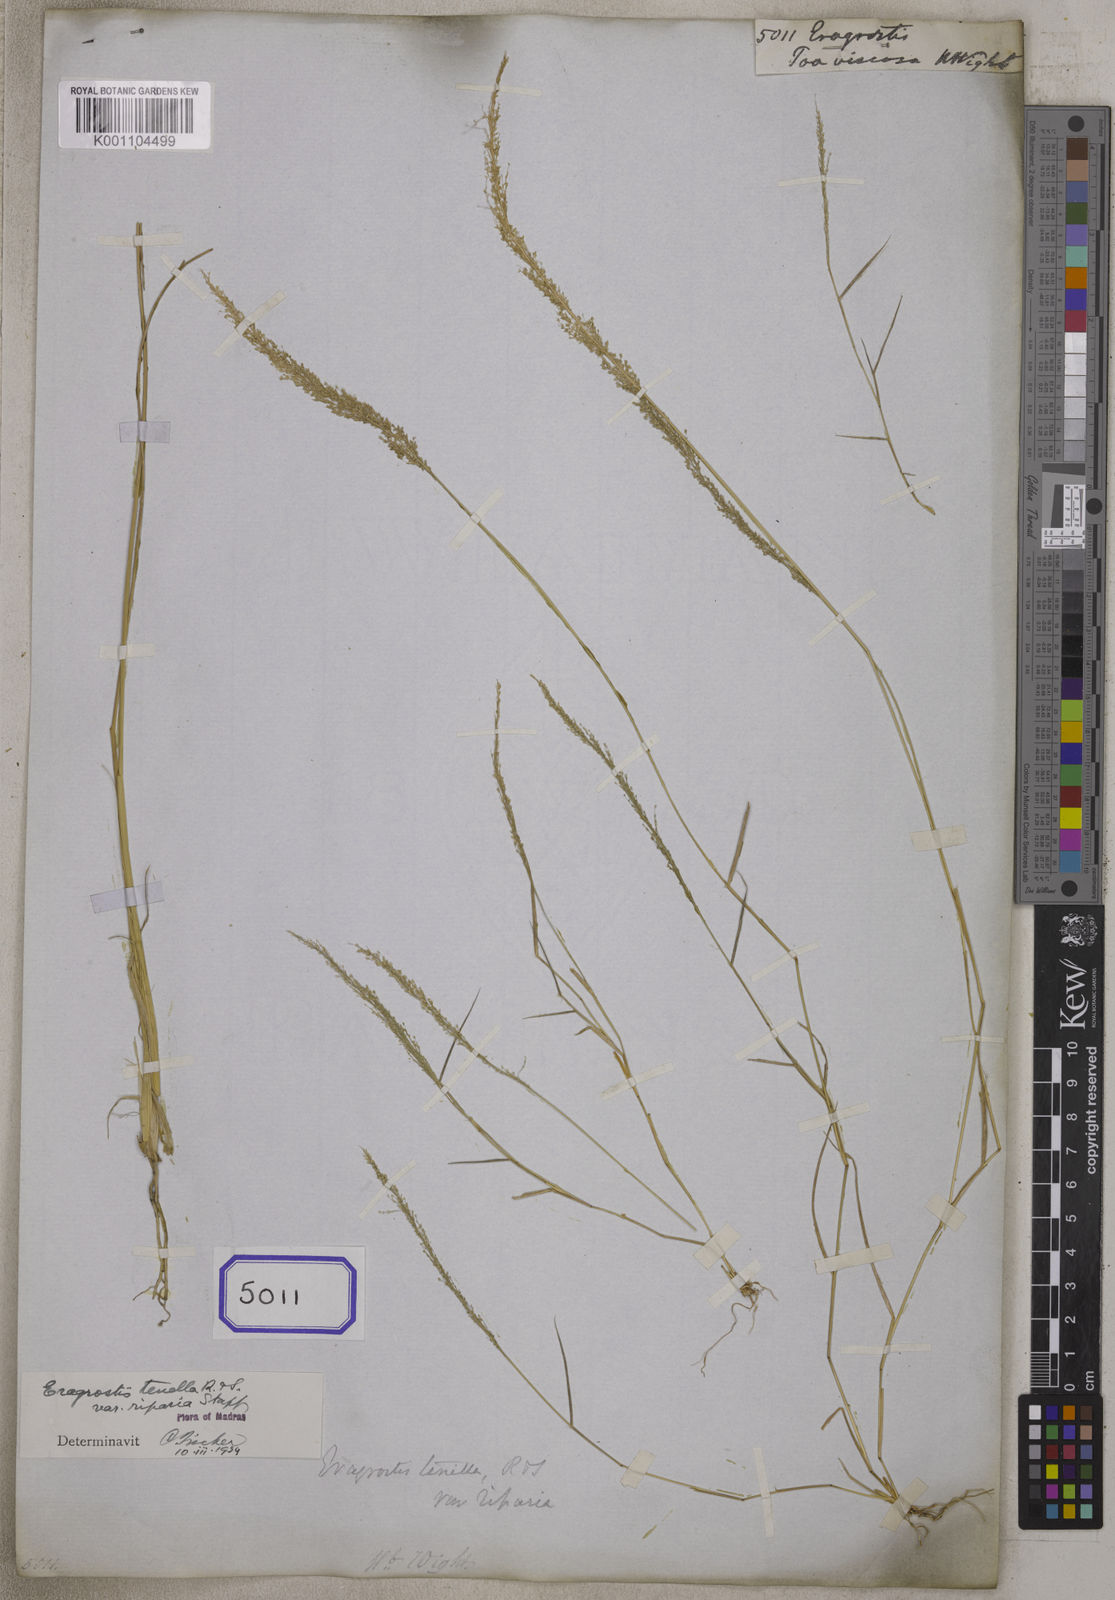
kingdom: Plantae
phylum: Tracheophyta
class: Liliopsida
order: Poales
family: Poaceae
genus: Eragrostis
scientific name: Eragrostis
